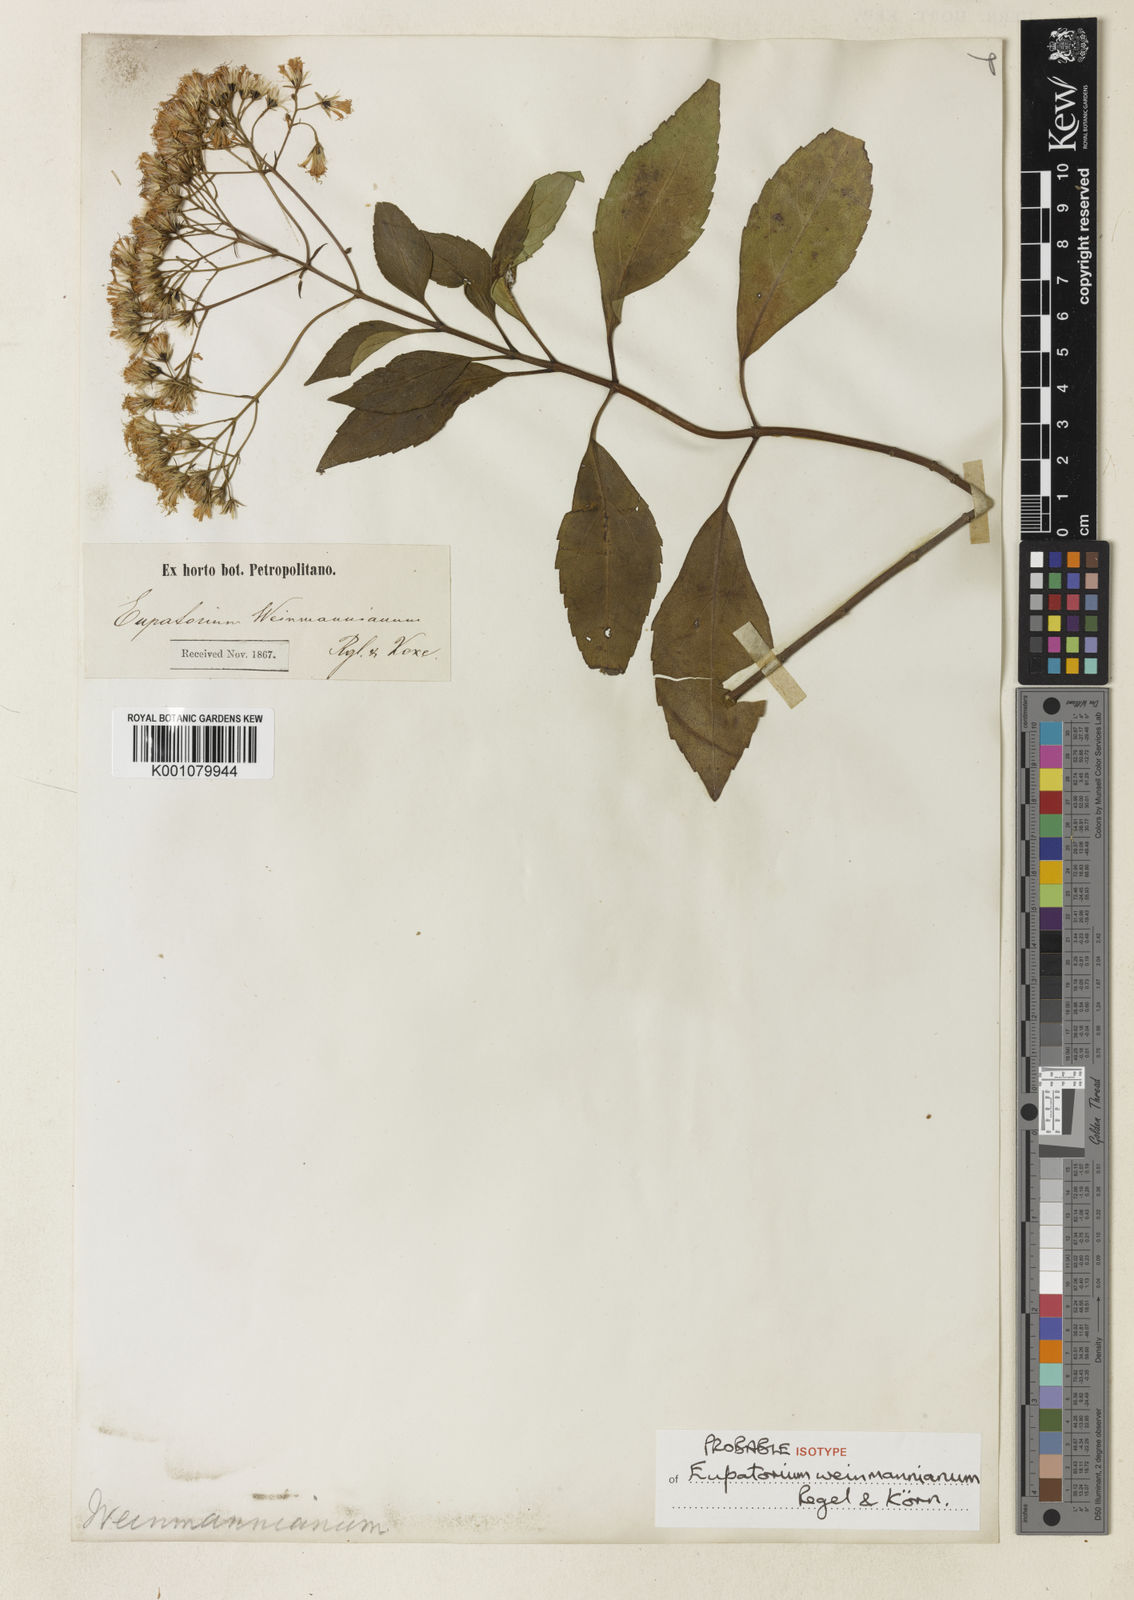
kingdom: Plantae
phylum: Tracheophyta
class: Magnoliopsida
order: Asterales
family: Asteraceae
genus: Ageratina
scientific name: Ageratina ligustrina
